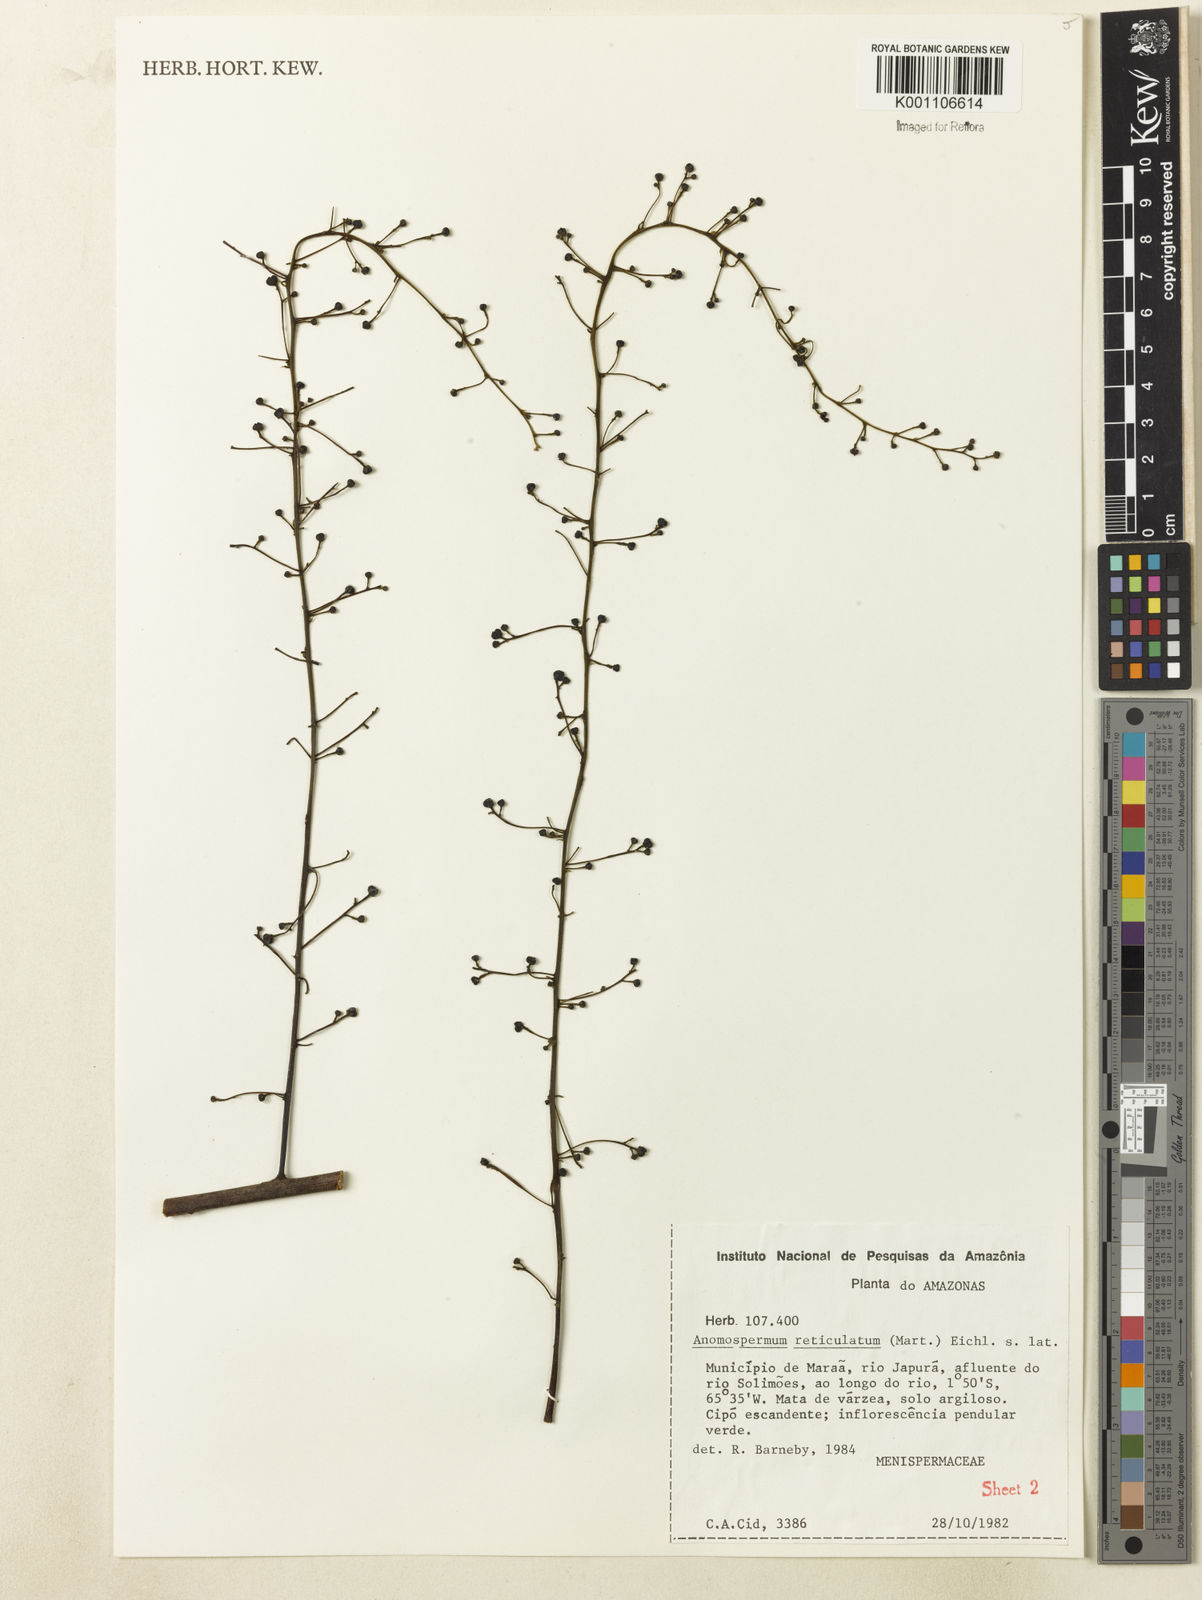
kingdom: Plantae
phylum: Tracheophyta
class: Magnoliopsida
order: Ranunculales
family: Menispermaceae
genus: Anomospermum
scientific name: Anomospermum reticulatum
